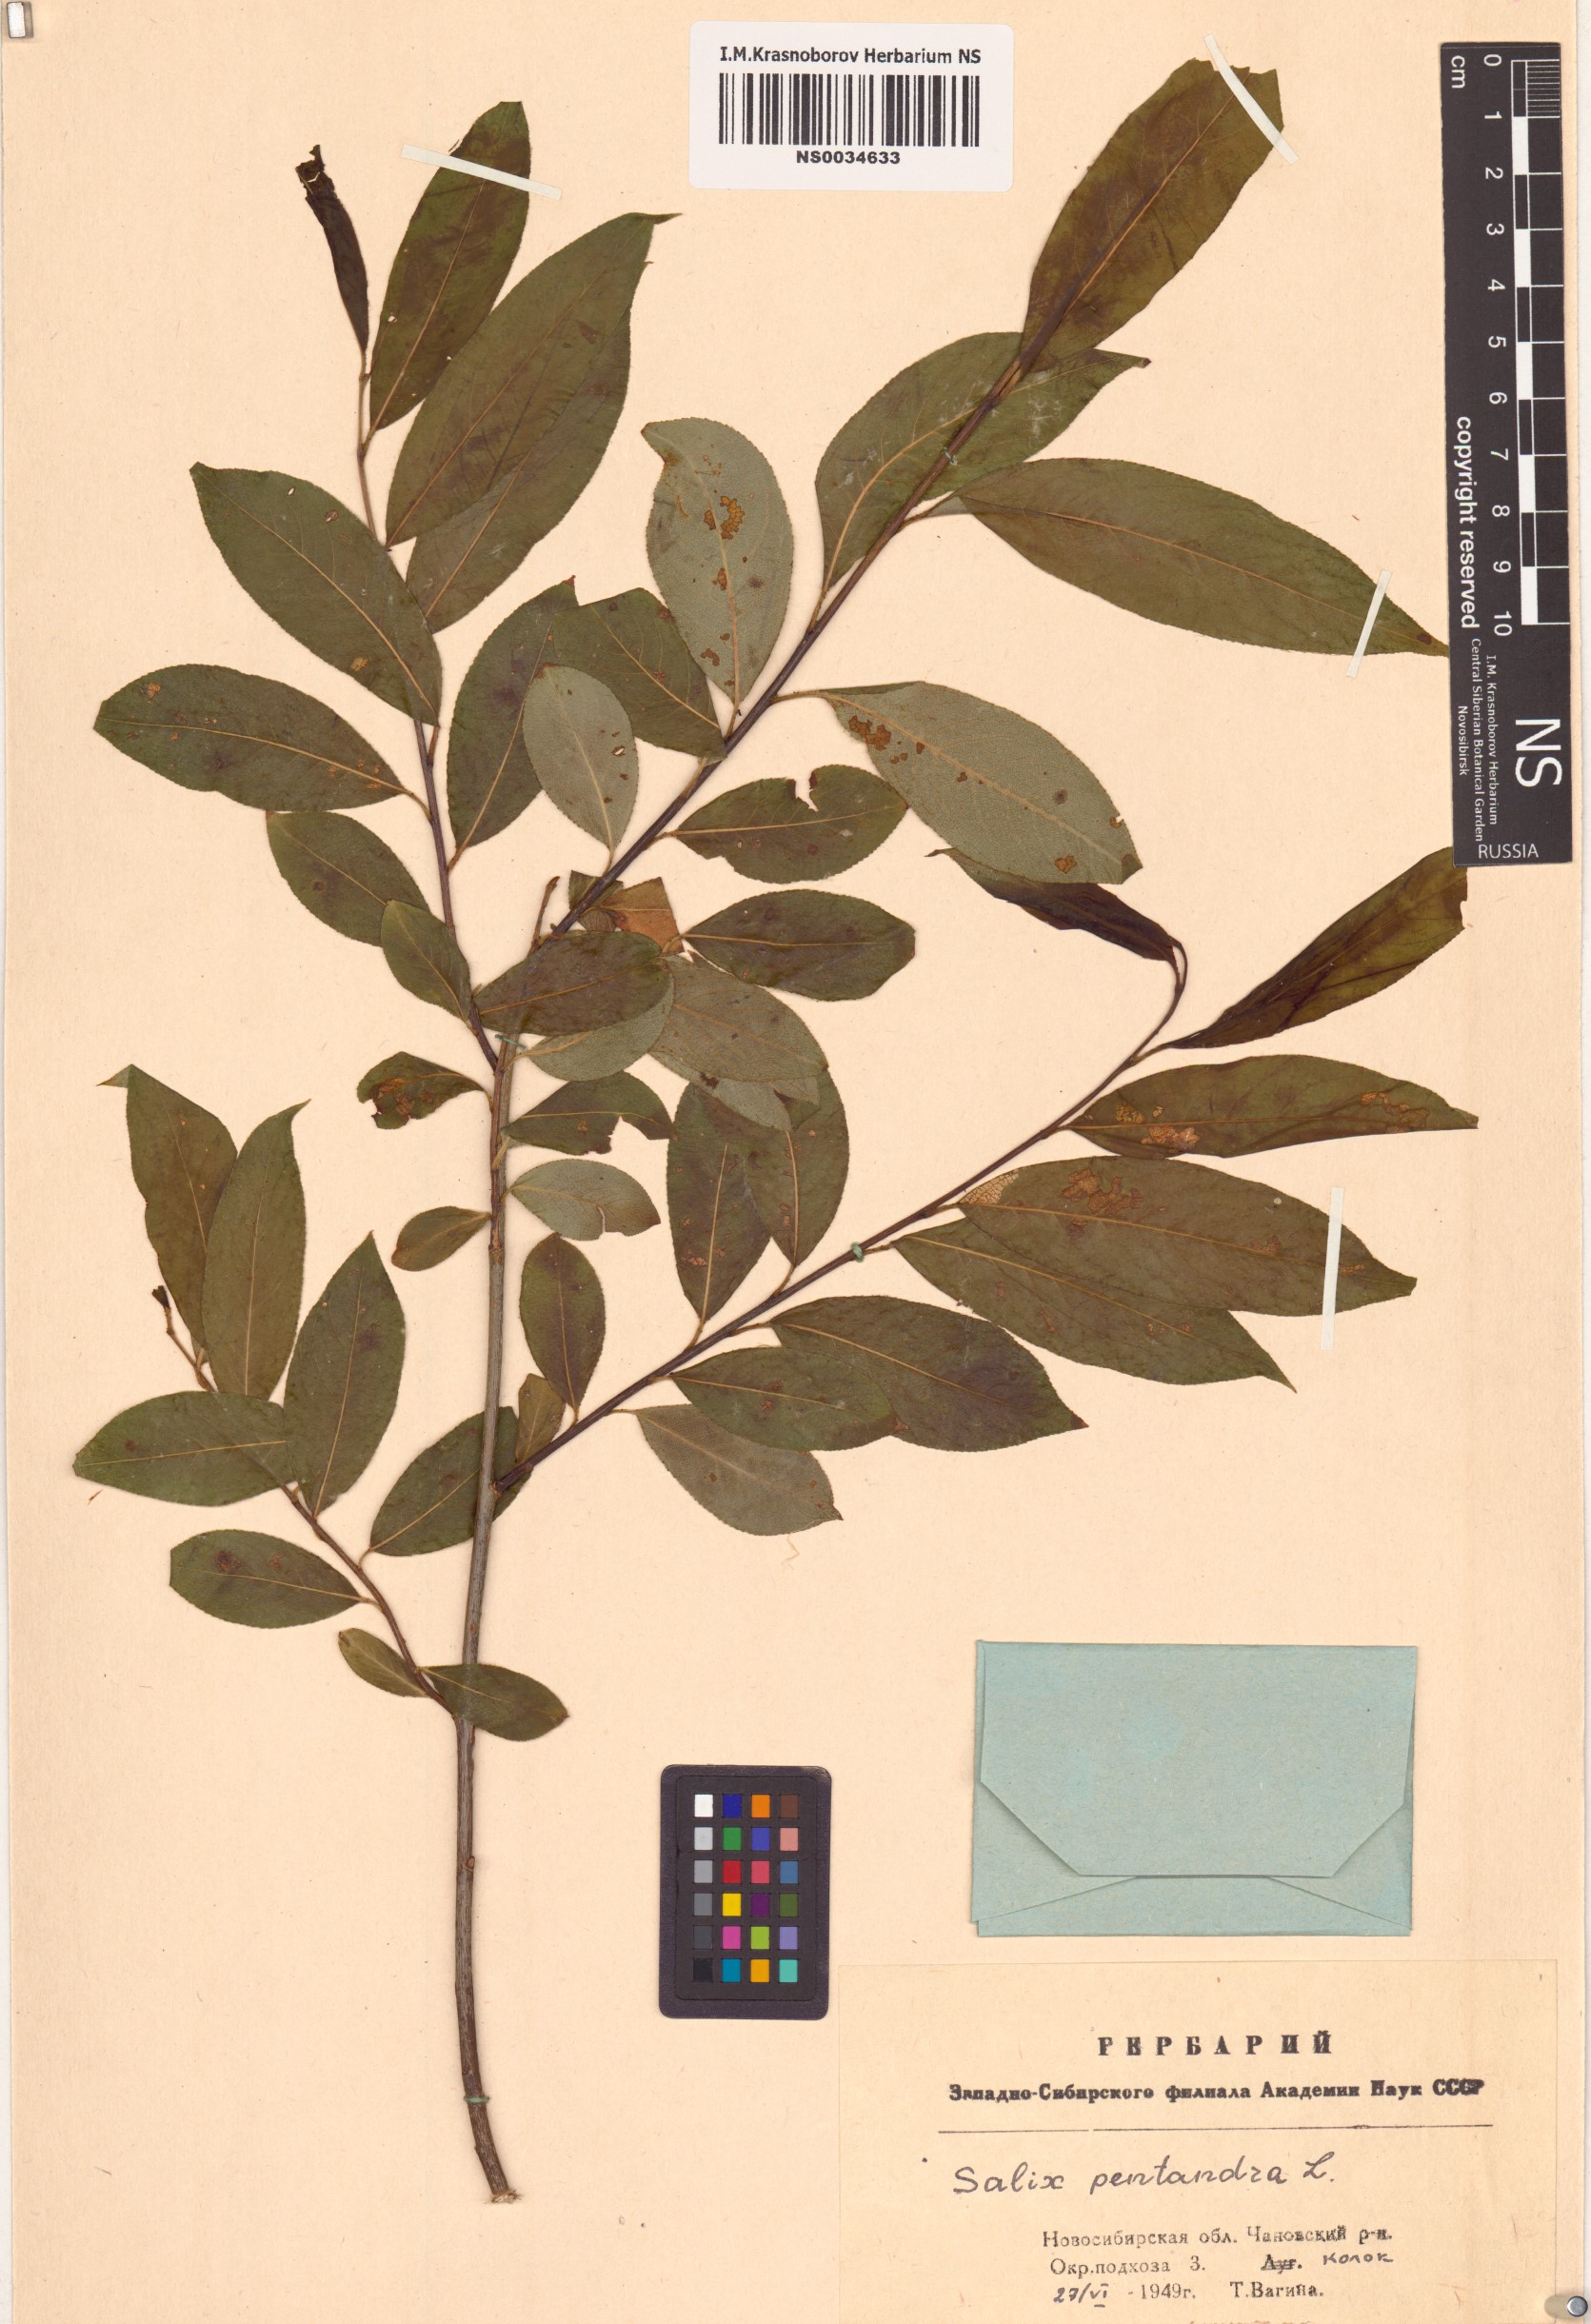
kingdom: Plantae
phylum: Tracheophyta
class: Magnoliopsida
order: Malpighiales
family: Salicaceae
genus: Salix
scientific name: Salix pentandra
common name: Bay willow
